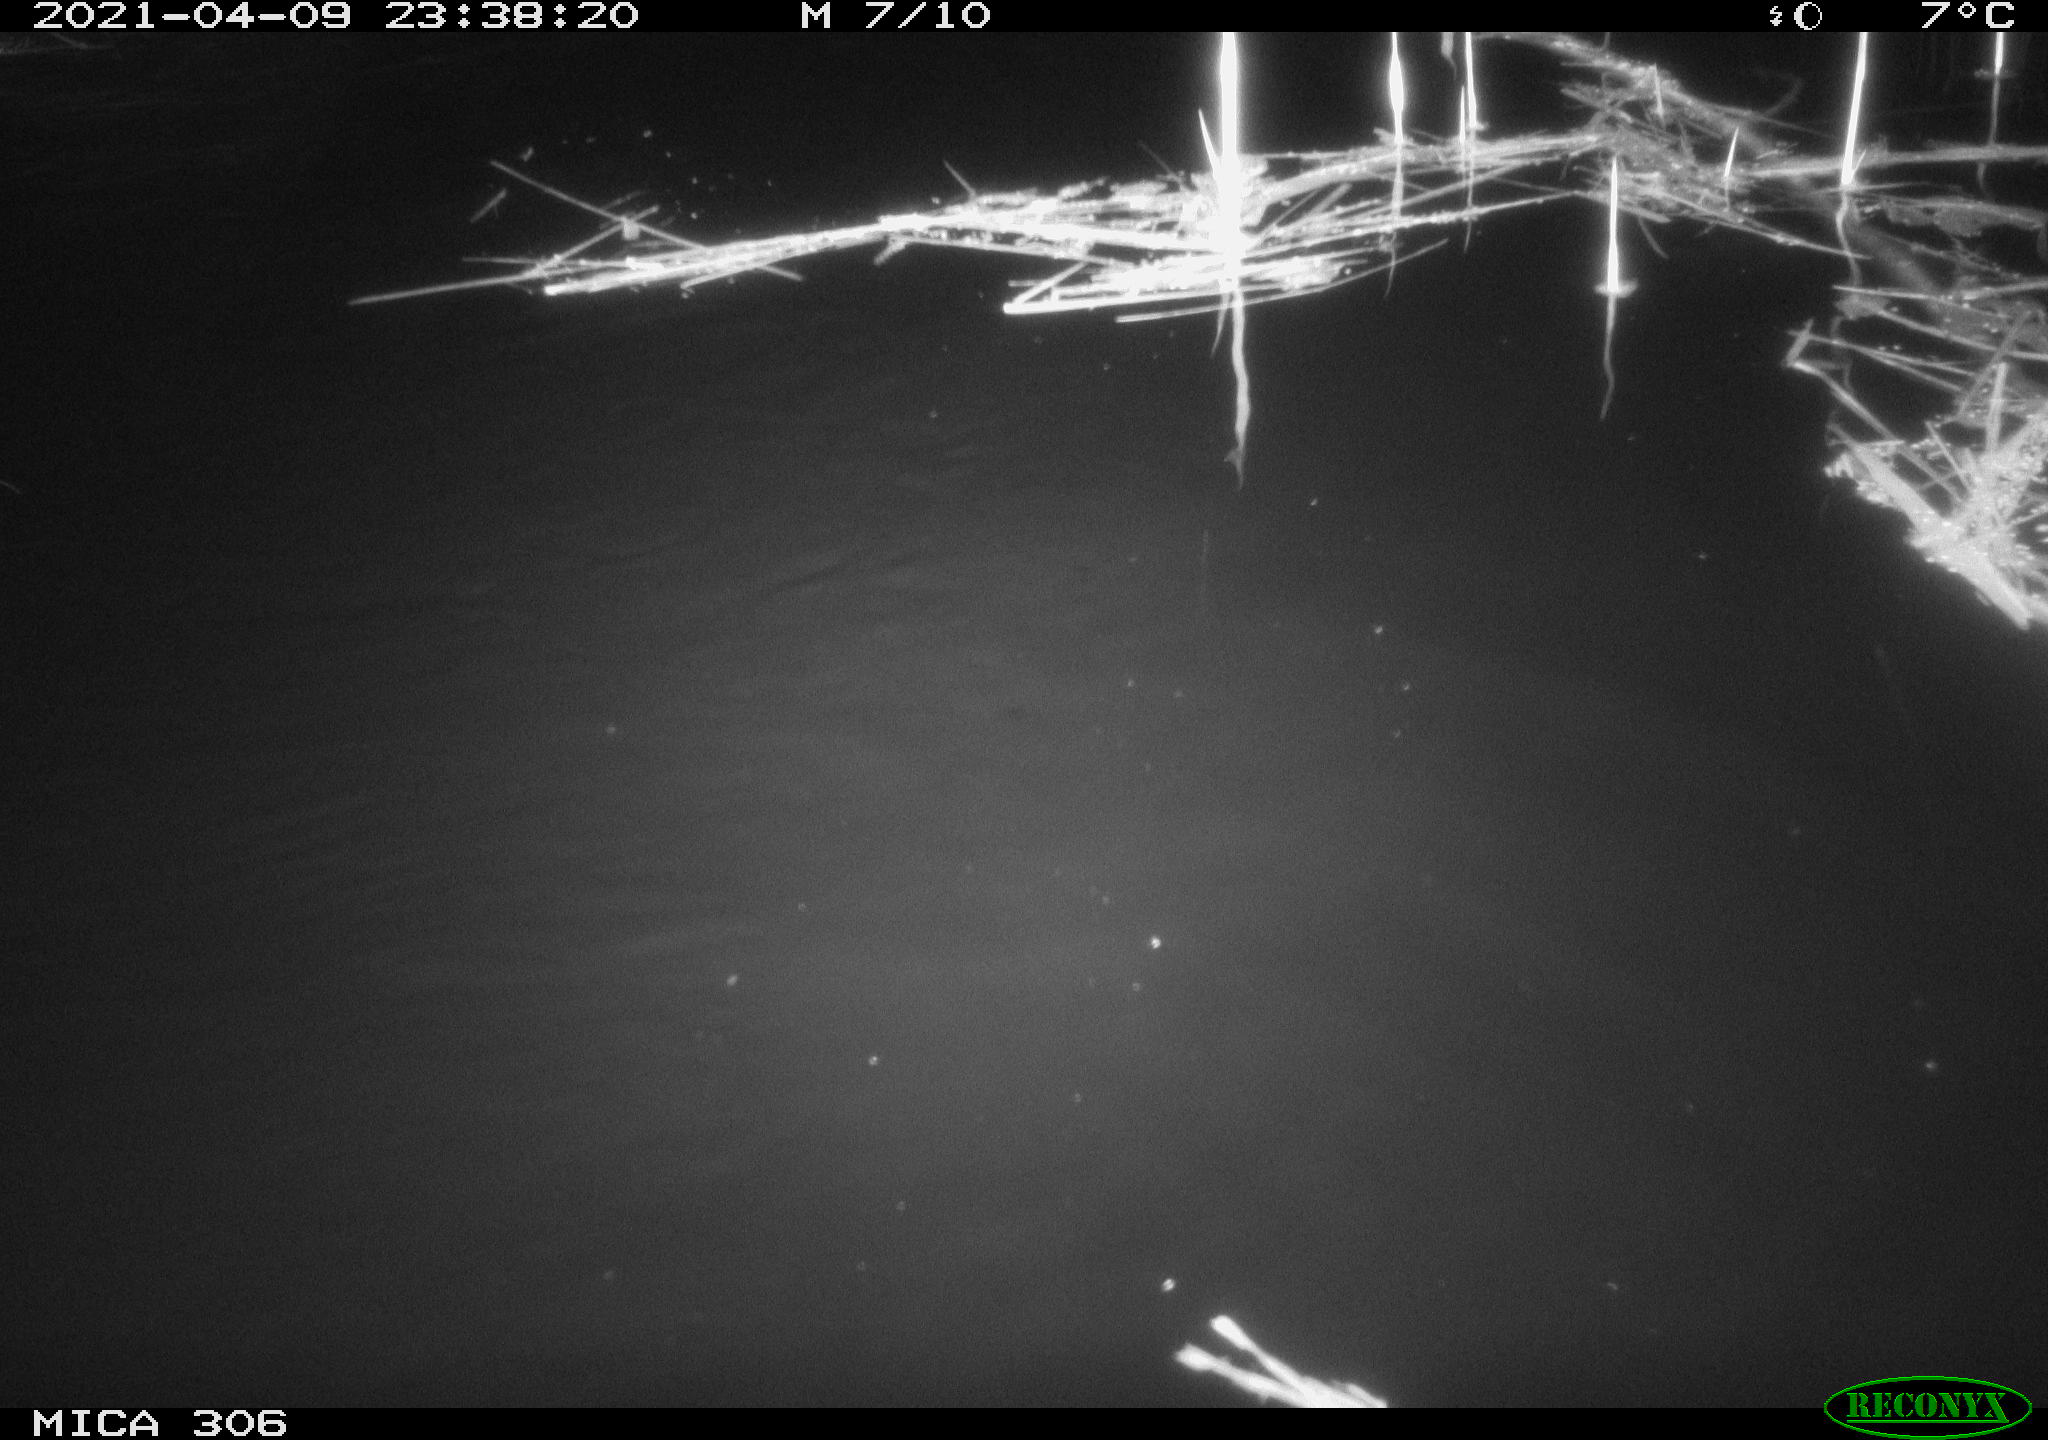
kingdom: Animalia
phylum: Chordata
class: Mammalia
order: Rodentia
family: Cricetidae
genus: Ondatra
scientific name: Ondatra zibethicus
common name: Muskrat
